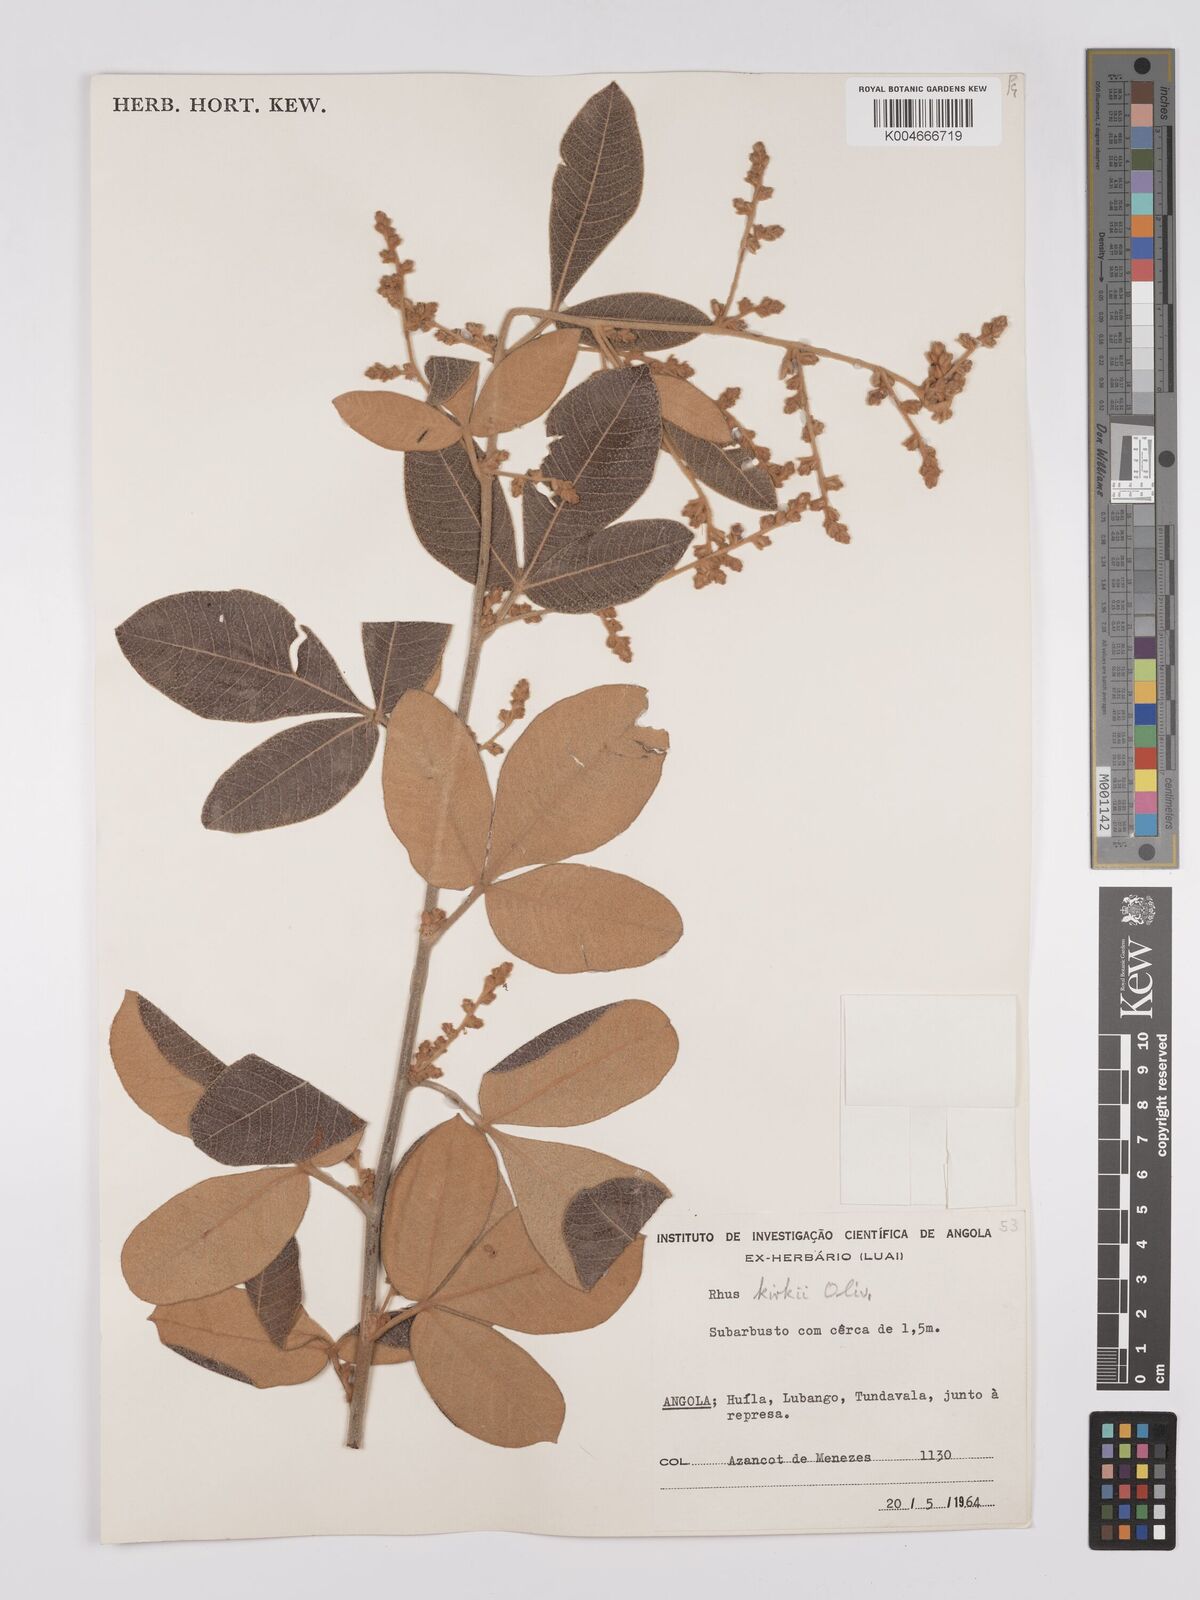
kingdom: Plantae
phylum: Tracheophyta
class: Magnoliopsida
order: Sapindales
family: Anacardiaceae
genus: Searsia
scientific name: Searsia kirkii
